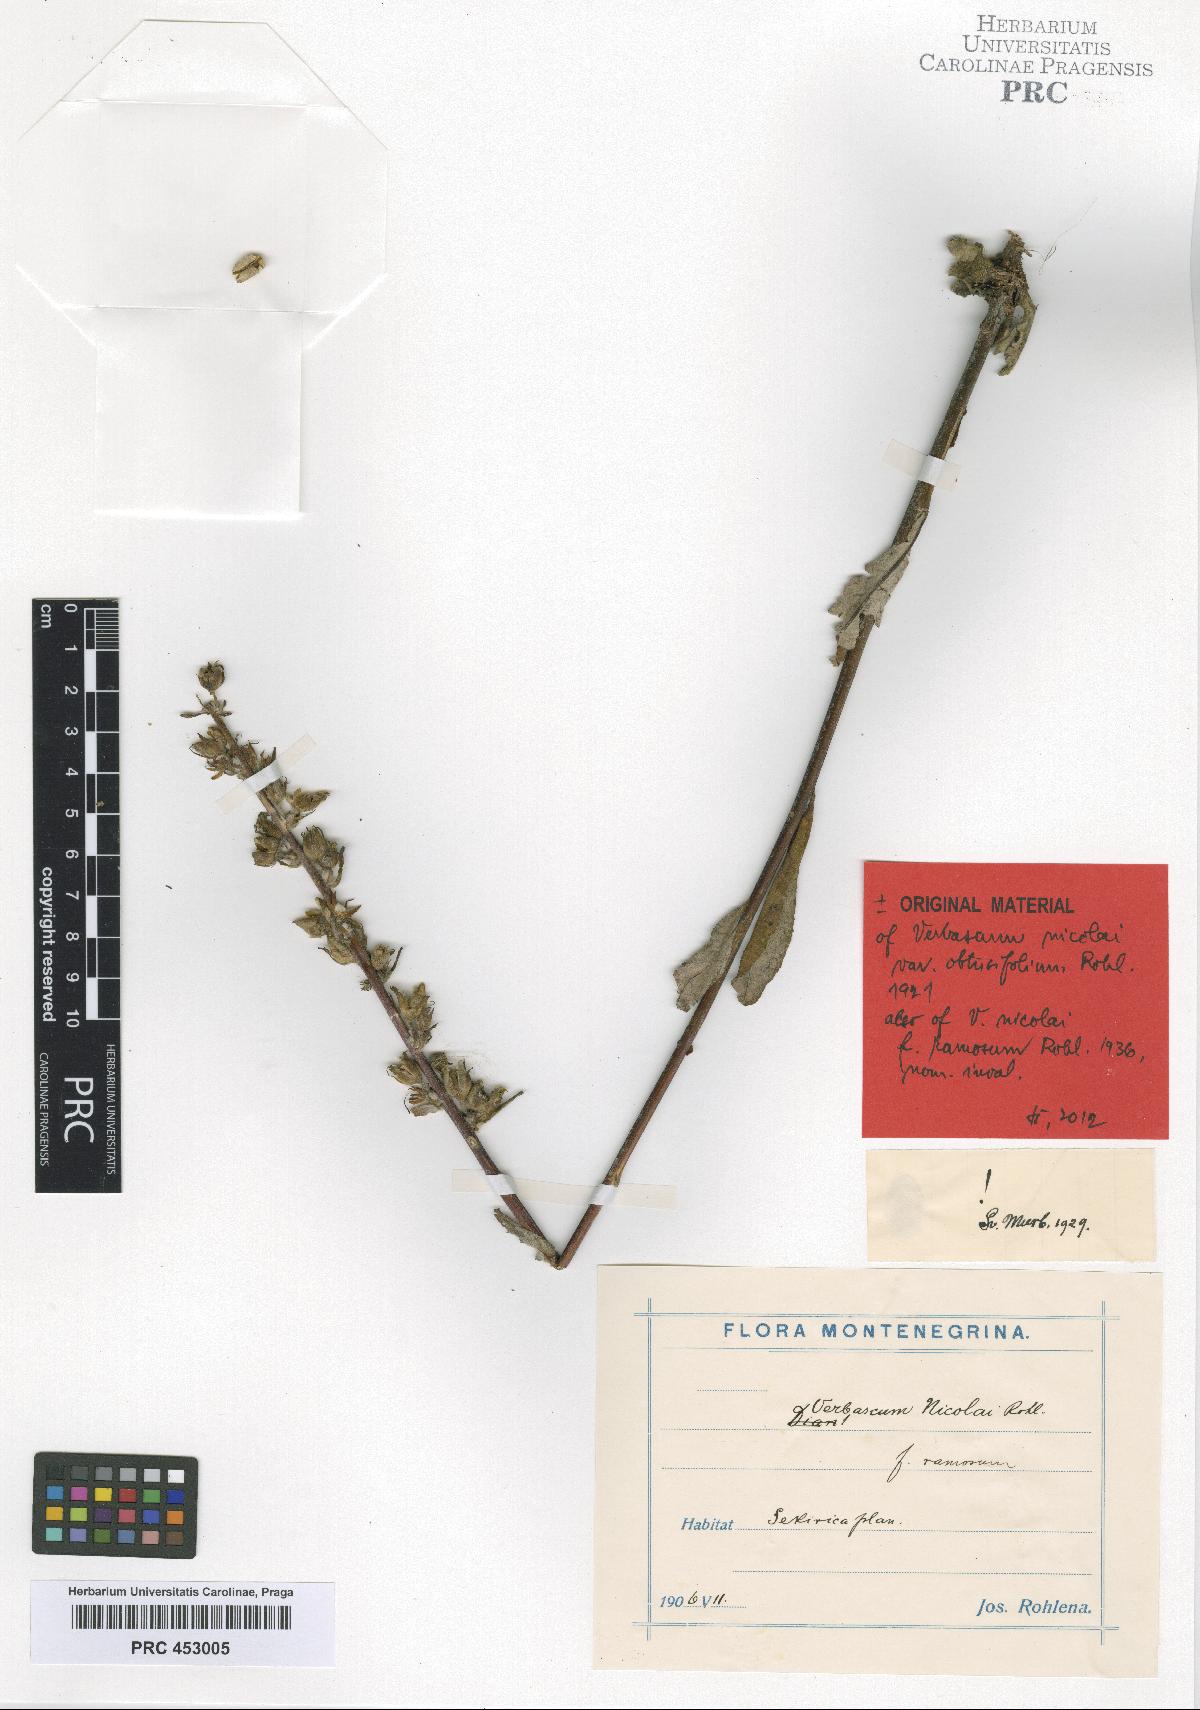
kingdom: Plantae
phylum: Tracheophyta
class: Magnoliopsida
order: Lamiales
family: Scrophulariaceae
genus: Verbascum
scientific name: Verbascum nicolai
